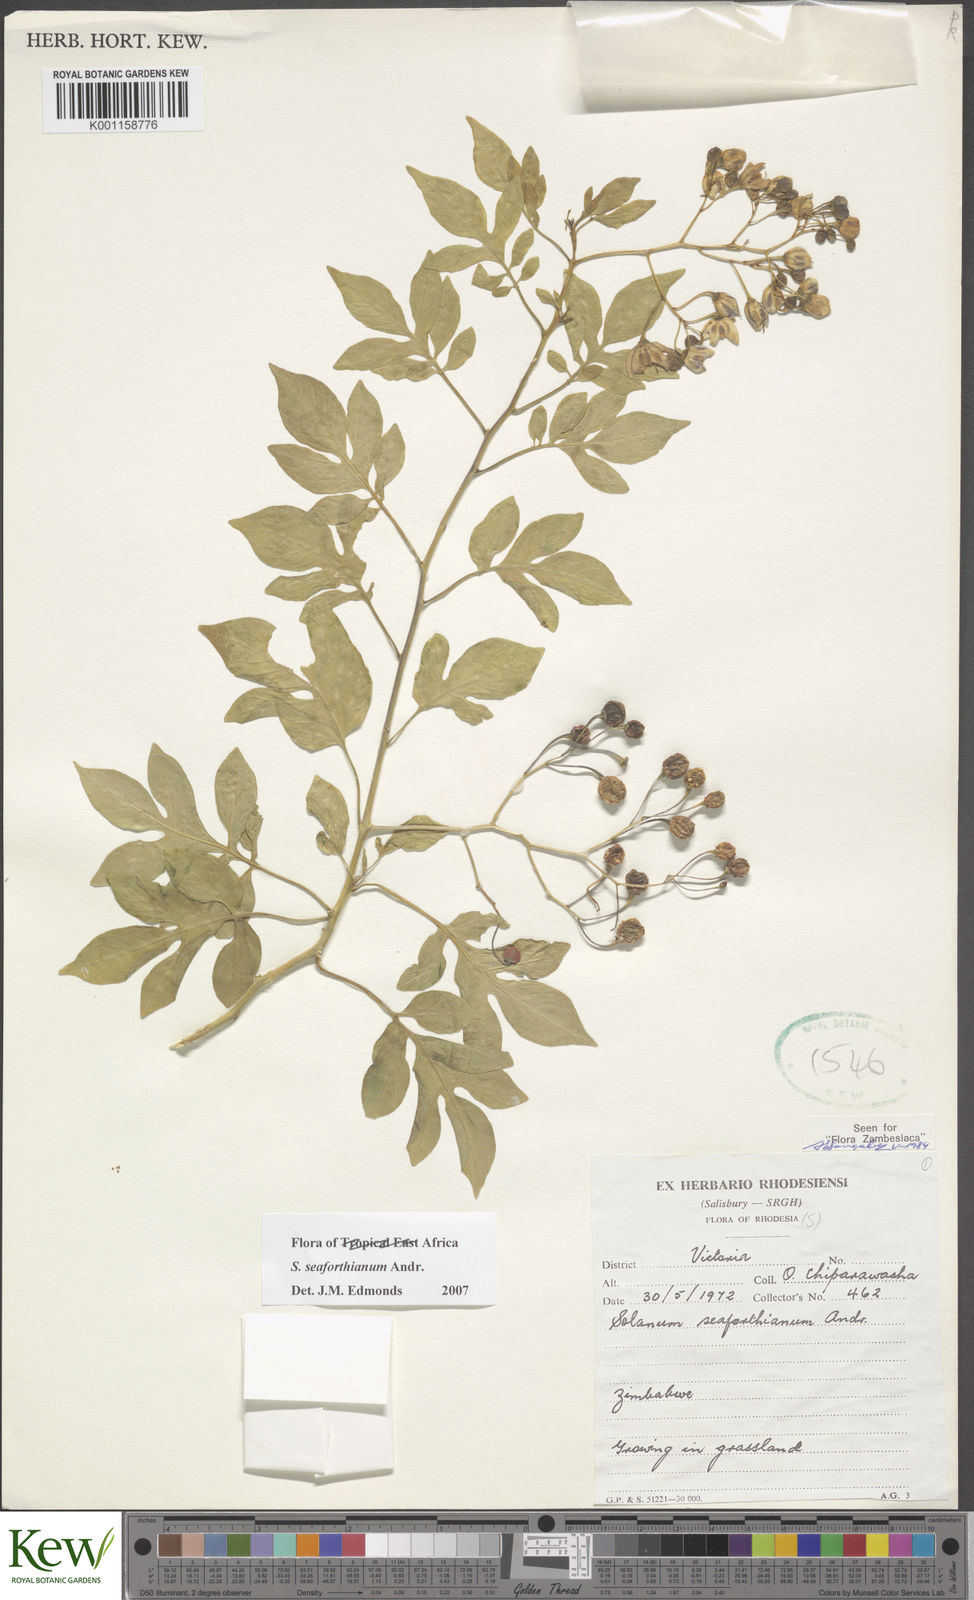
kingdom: Plantae
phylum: Tracheophyta
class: Magnoliopsida
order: Solanales
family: Solanaceae
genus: Solanum
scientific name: Solanum seaforthianum
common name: Brazilian nightshade
